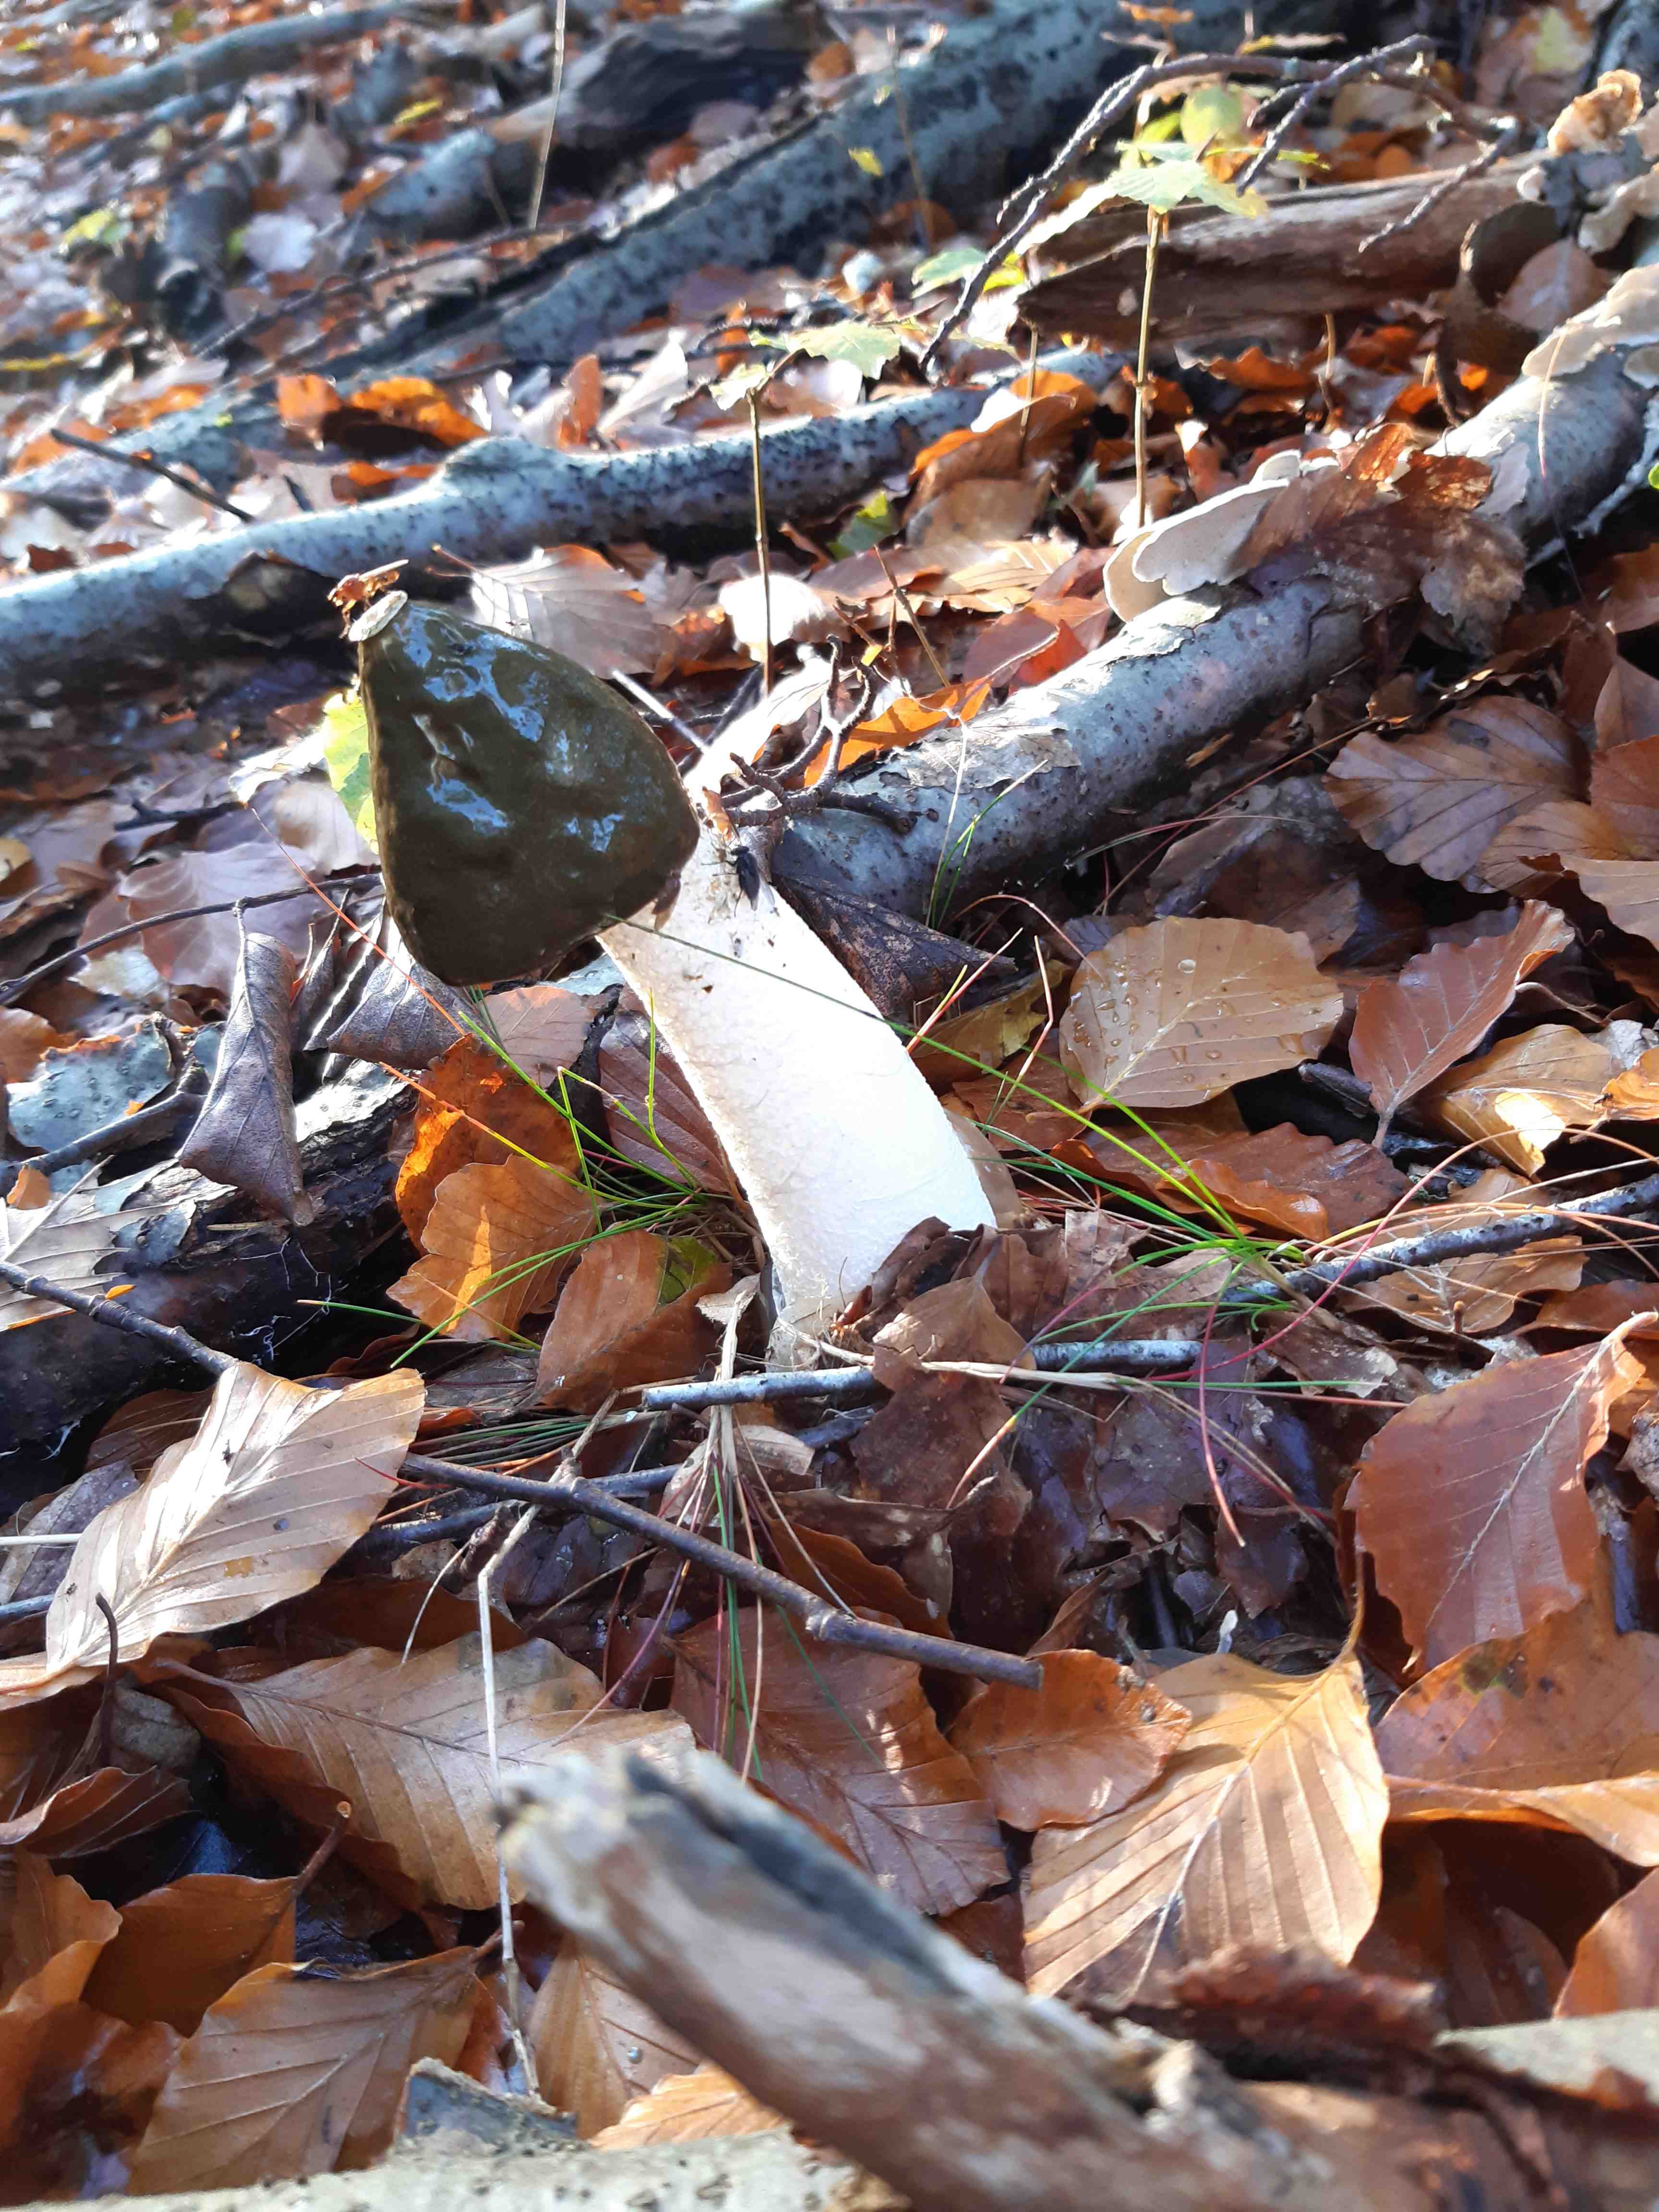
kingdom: Fungi
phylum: Basidiomycota
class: Agaricomycetes
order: Phallales
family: Phallaceae
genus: Phallus
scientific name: Phallus impudicus
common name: almindelig stinksvamp
